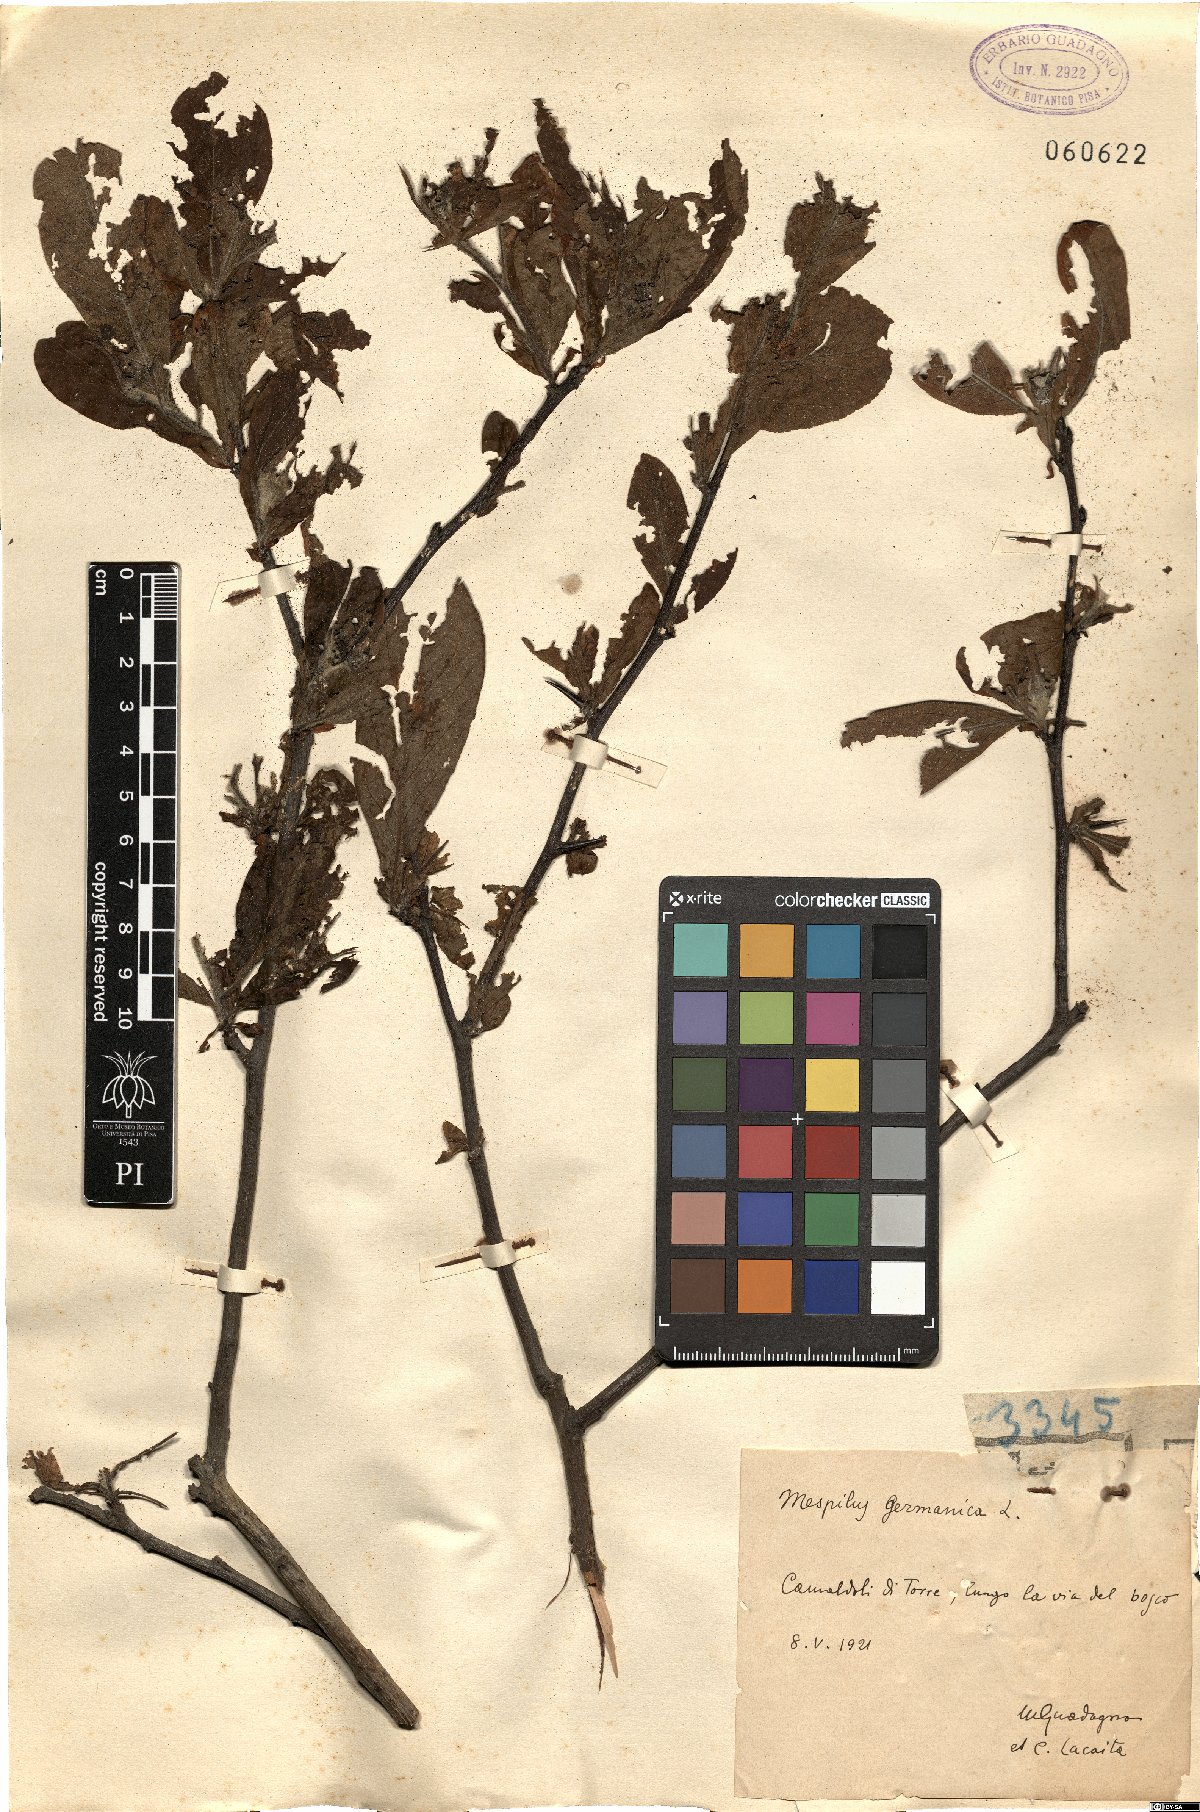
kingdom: Plantae
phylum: Tracheophyta
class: Magnoliopsida
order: Rosales
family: Rosaceae
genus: Mespilus
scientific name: Mespilus germanica
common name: Medlar
